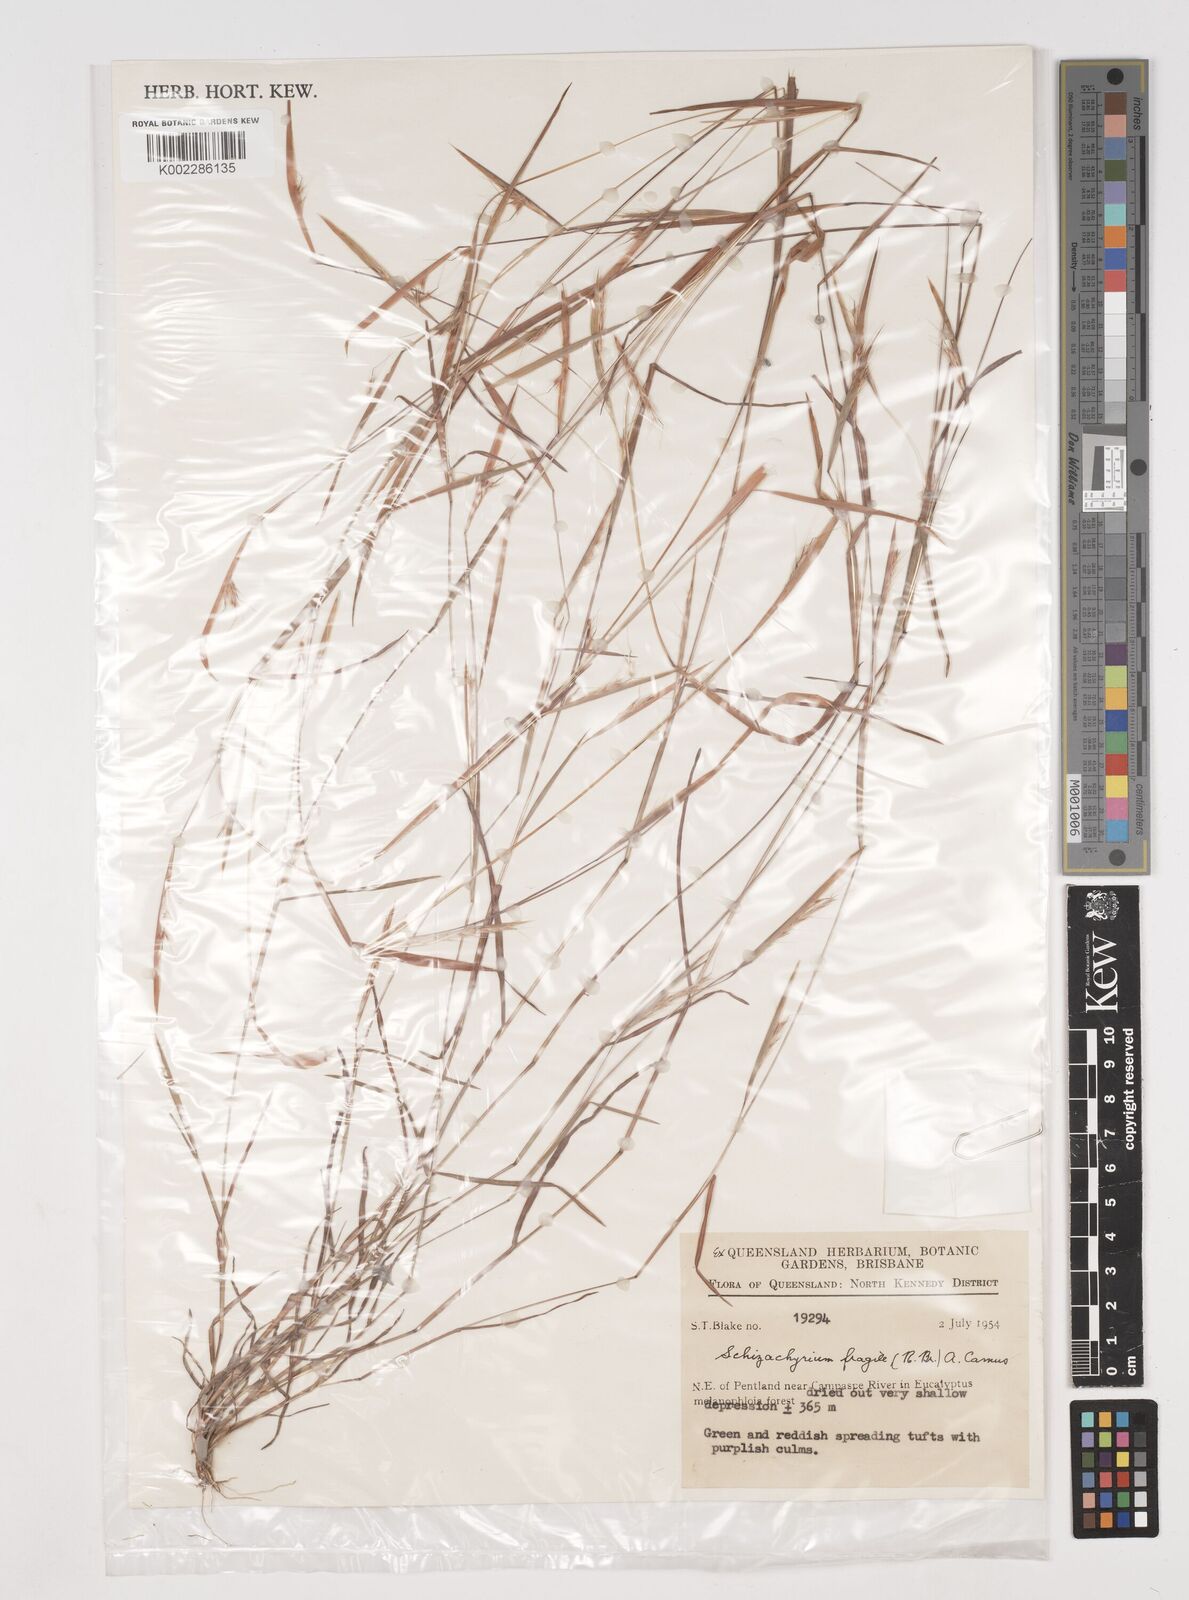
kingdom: Plantae
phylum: Tracheophyta
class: Liliopsida
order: Poales
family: Poaceae
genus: Schizachyrium
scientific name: Schizachyrium fragile
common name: Red spathe grass
